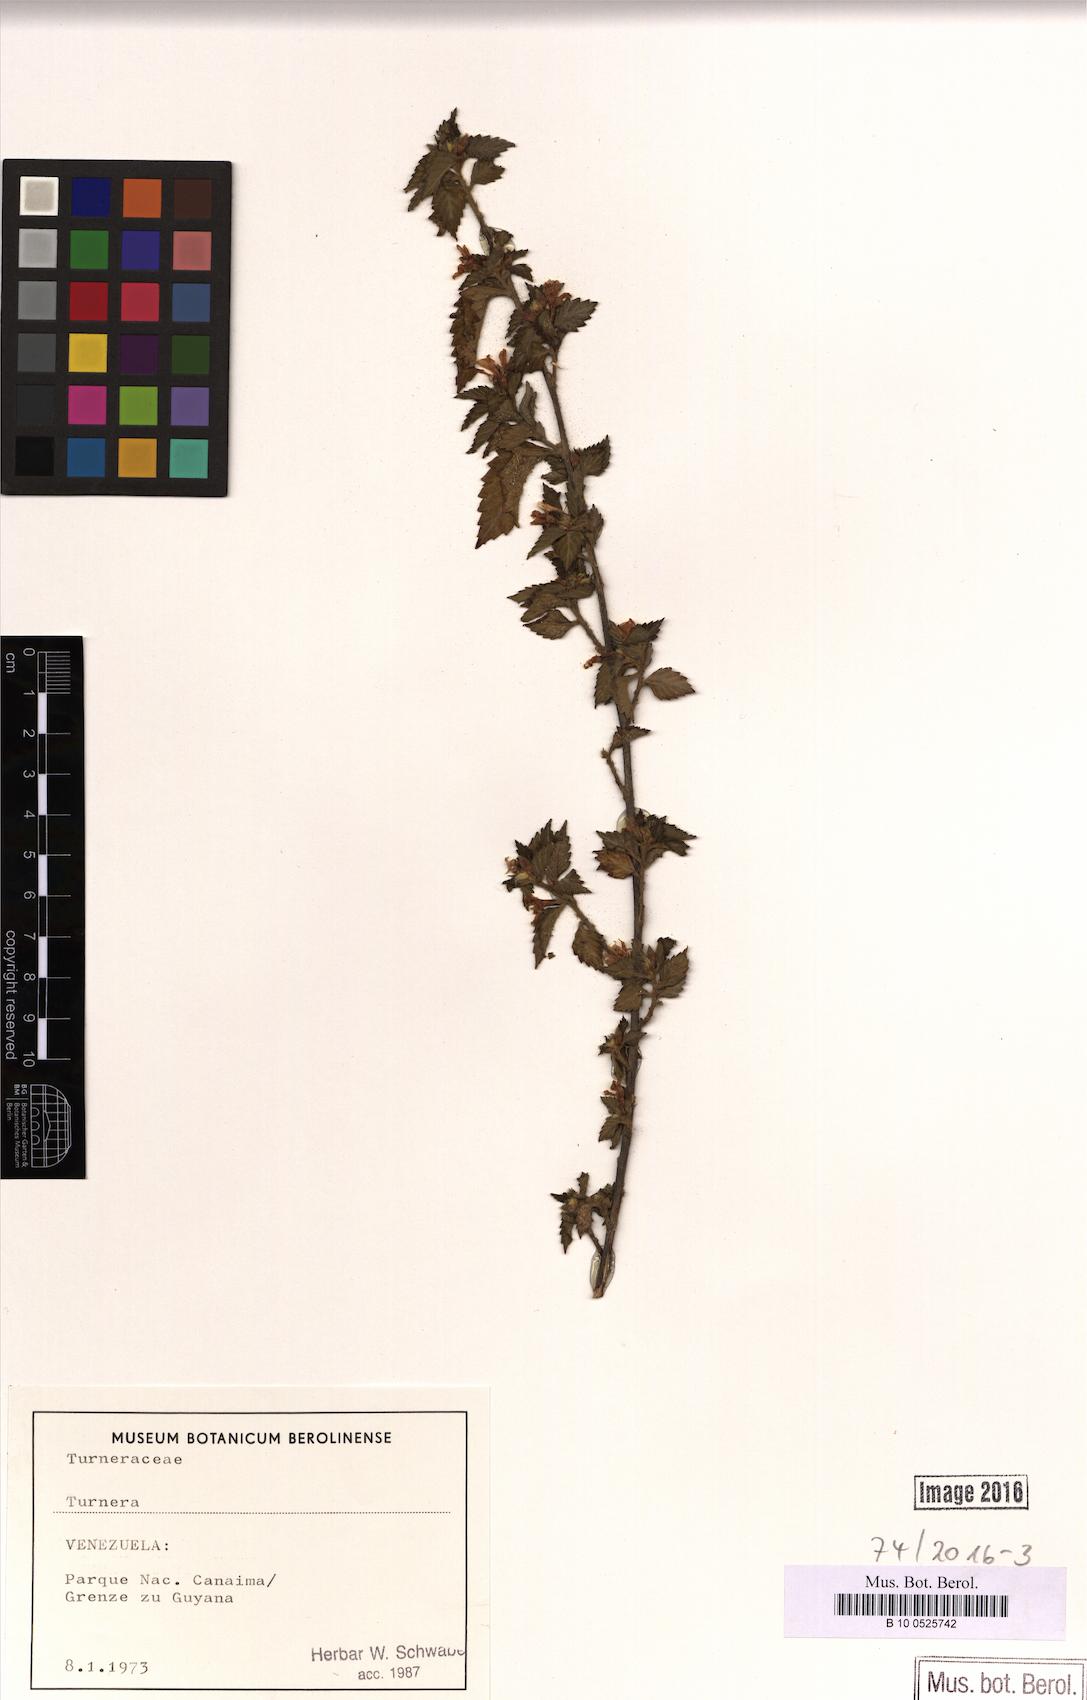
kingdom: Plantae
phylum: Tracheophyta
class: Magnoliopsida
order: Malpighiales
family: Turneraceae
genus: Turnera
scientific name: Turnera
